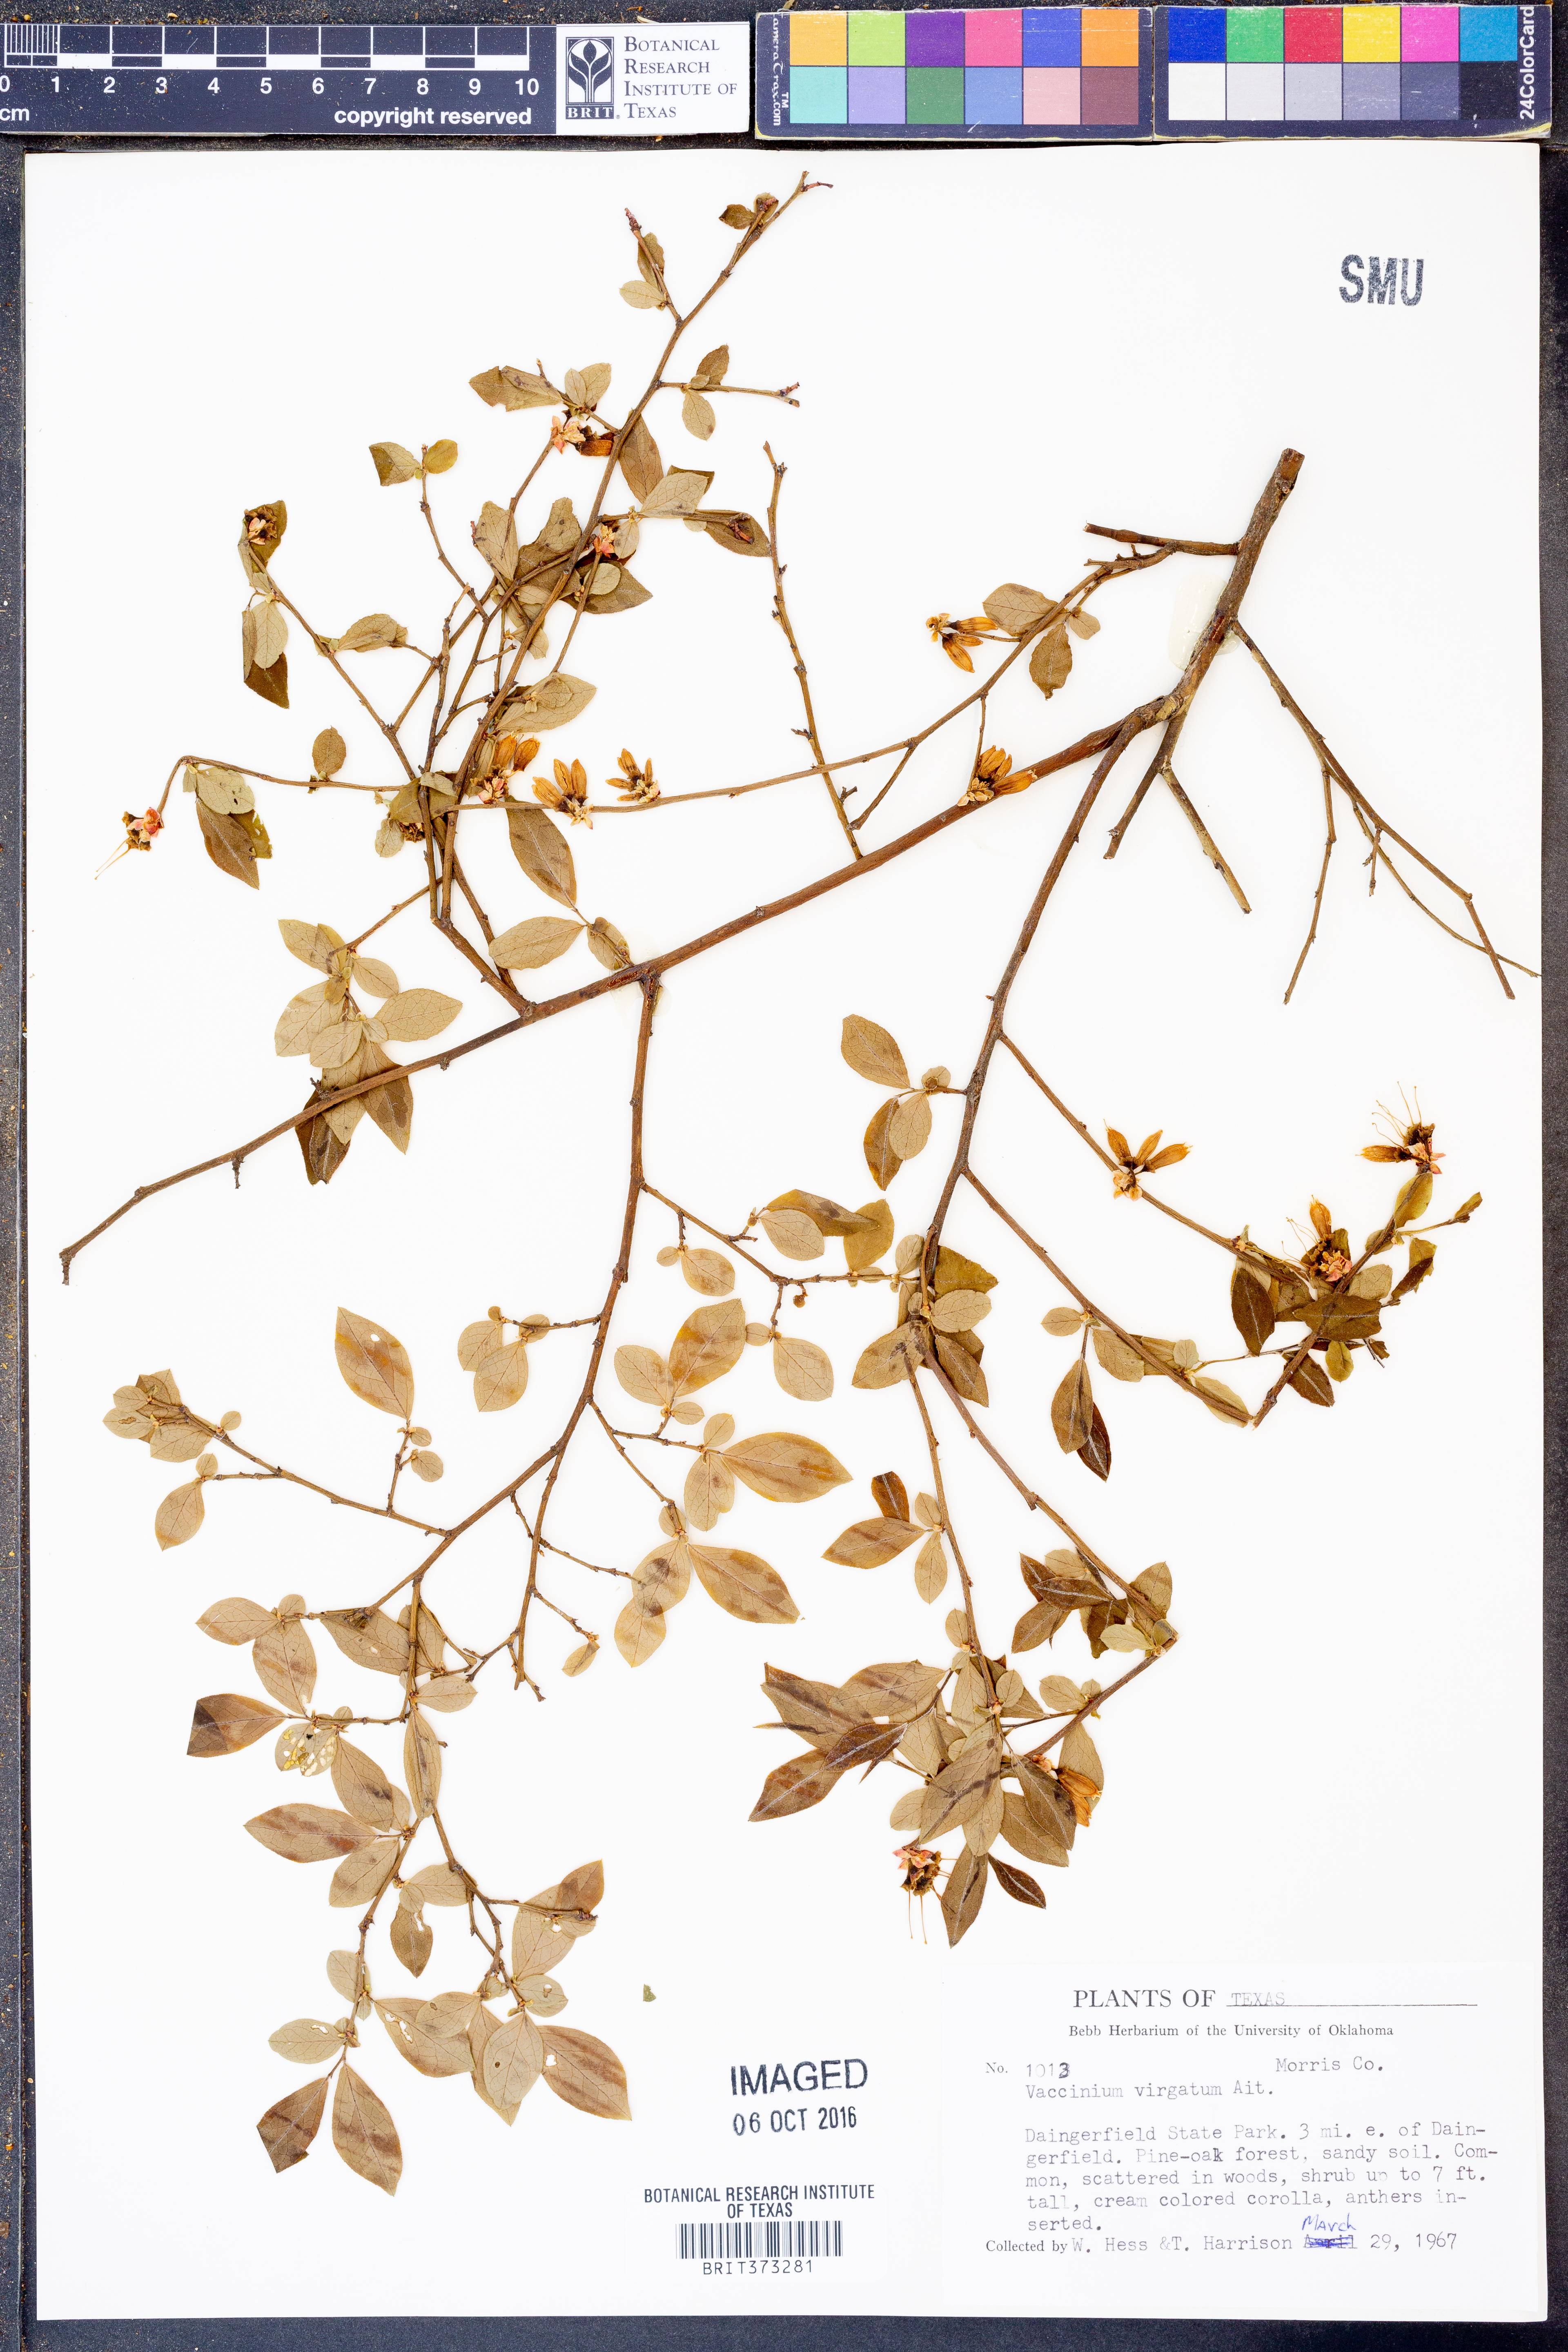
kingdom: Plantae
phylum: Tracheophyta
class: Magnoliopsida
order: Ericales
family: Ericaceae
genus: Vaccinium
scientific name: Vaccinium corymbosum
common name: Blueberry
